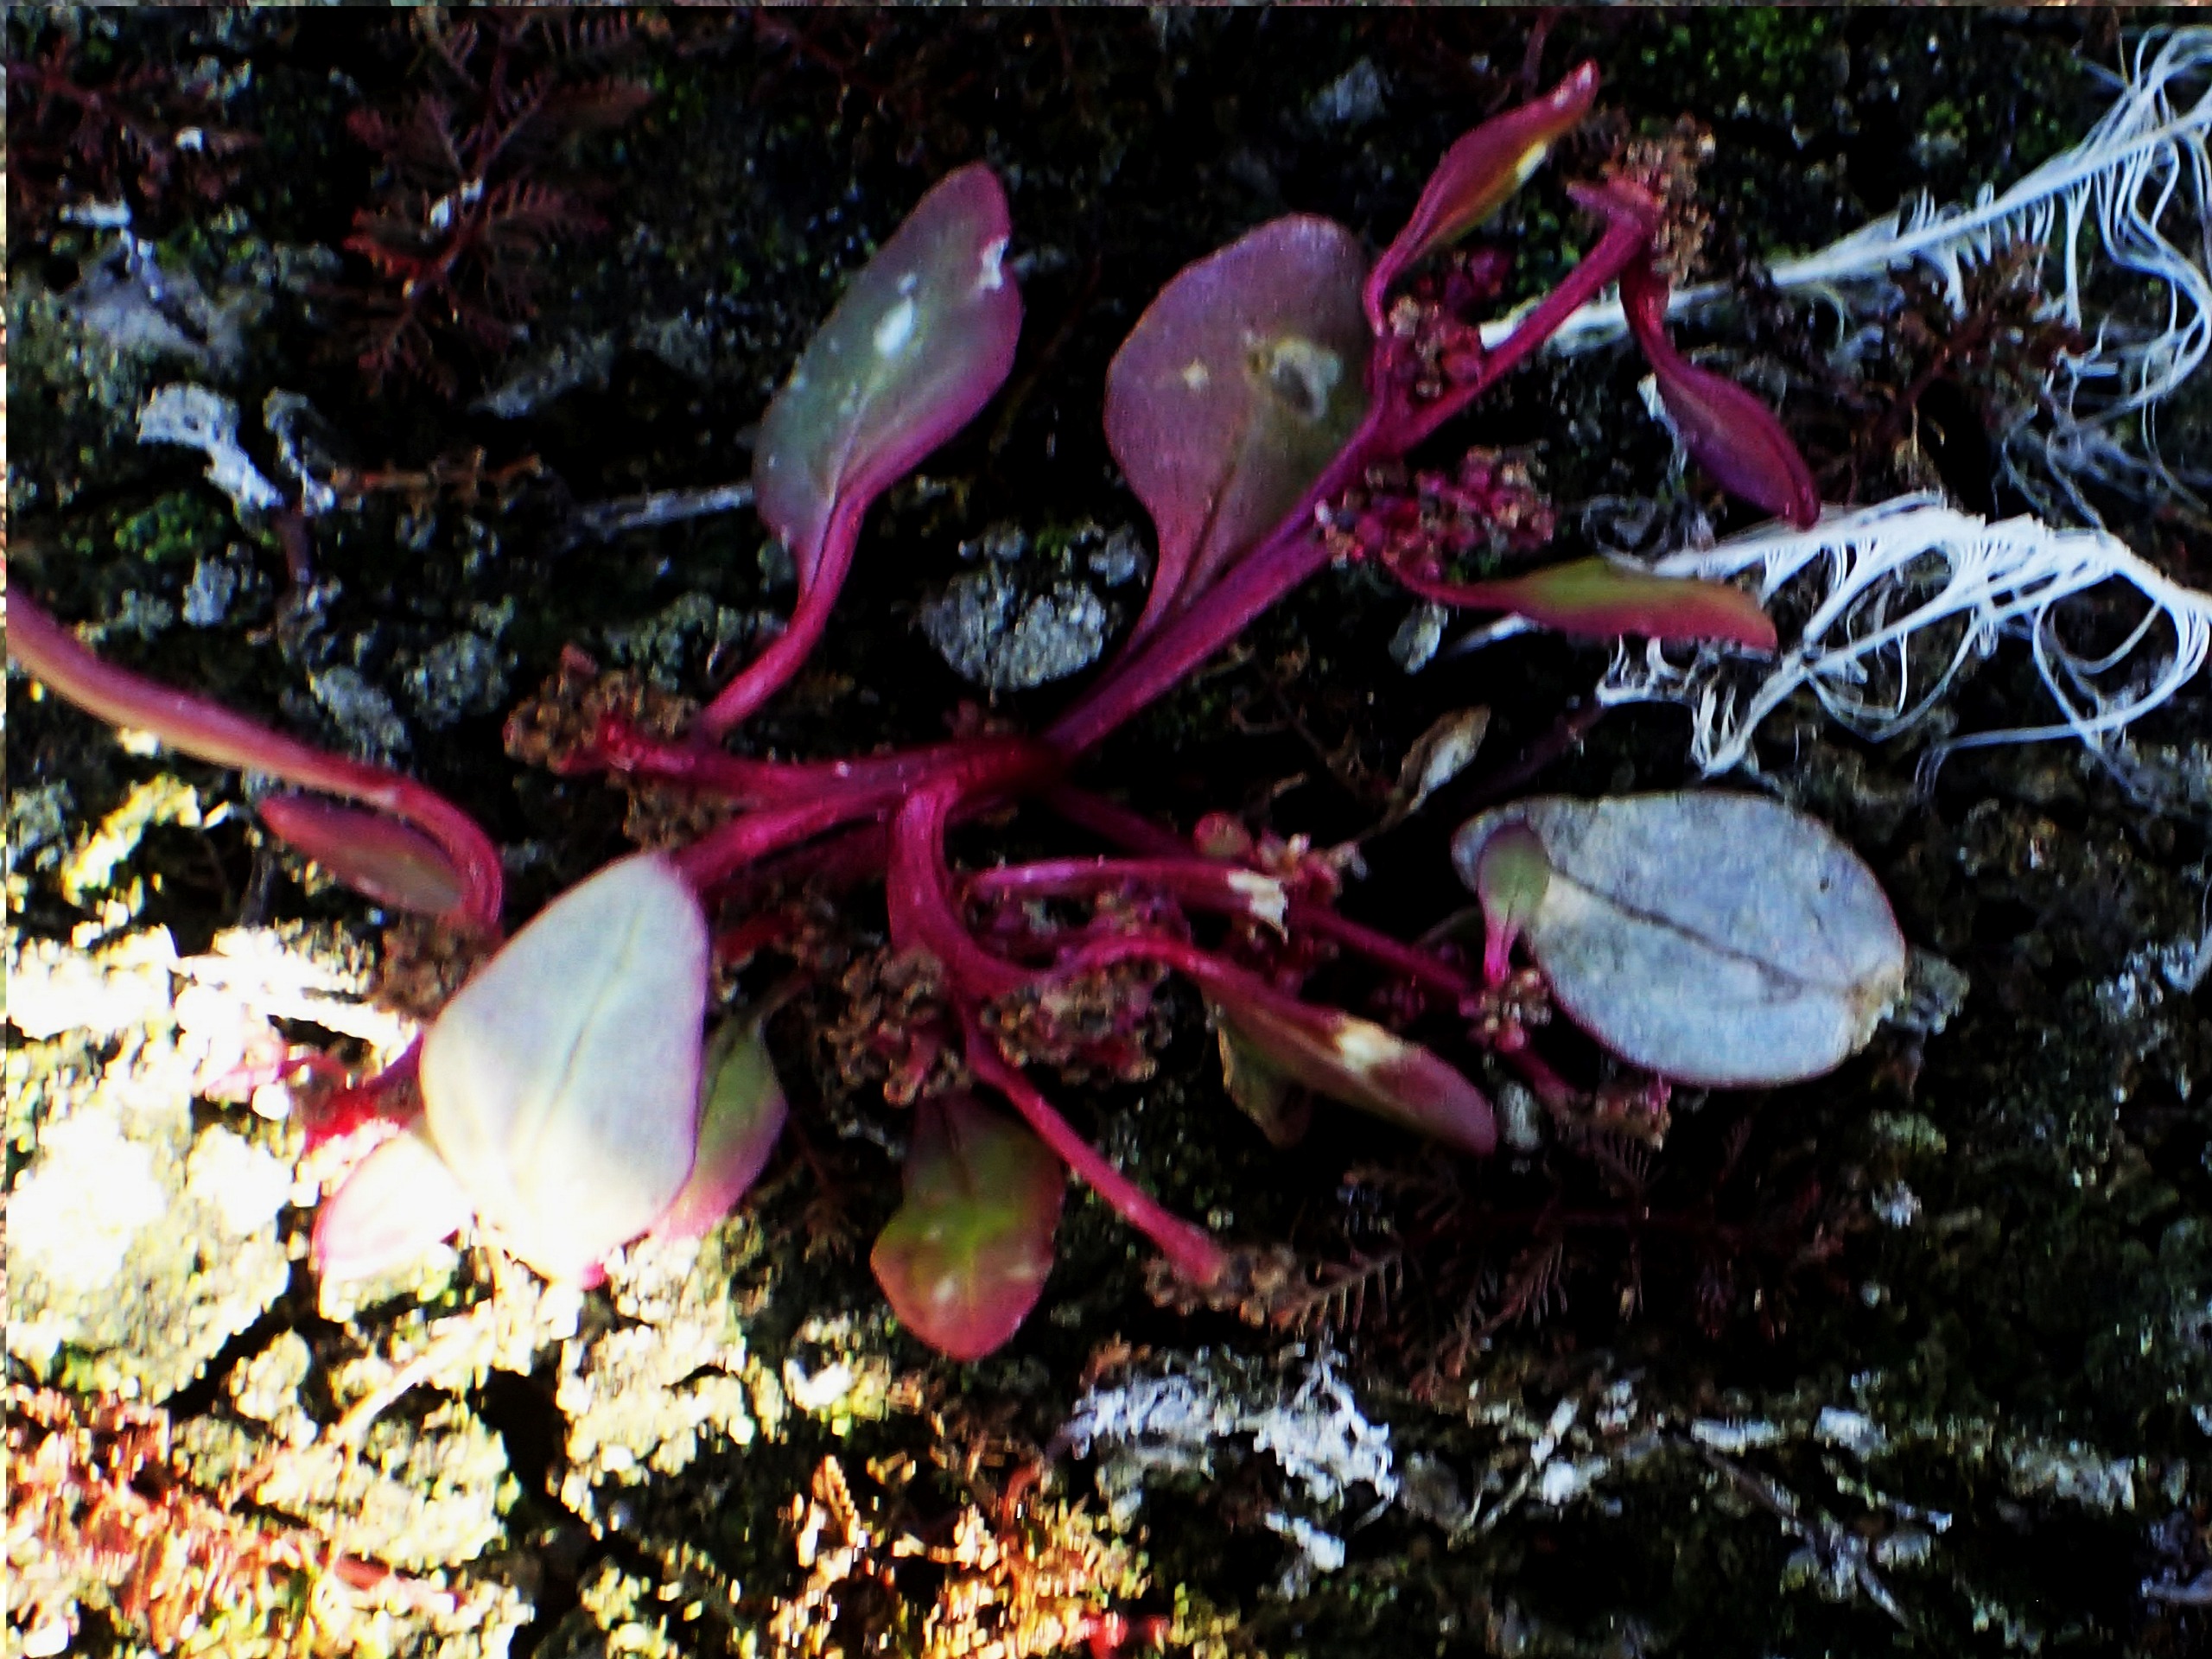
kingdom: Plantae
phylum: Tracheophyta
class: Magnoliopsida
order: Caryophyllales
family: Amaranthaceae
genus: Oxybasis
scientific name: Oxybasis chenopodioides
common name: Drue-gåsefod
